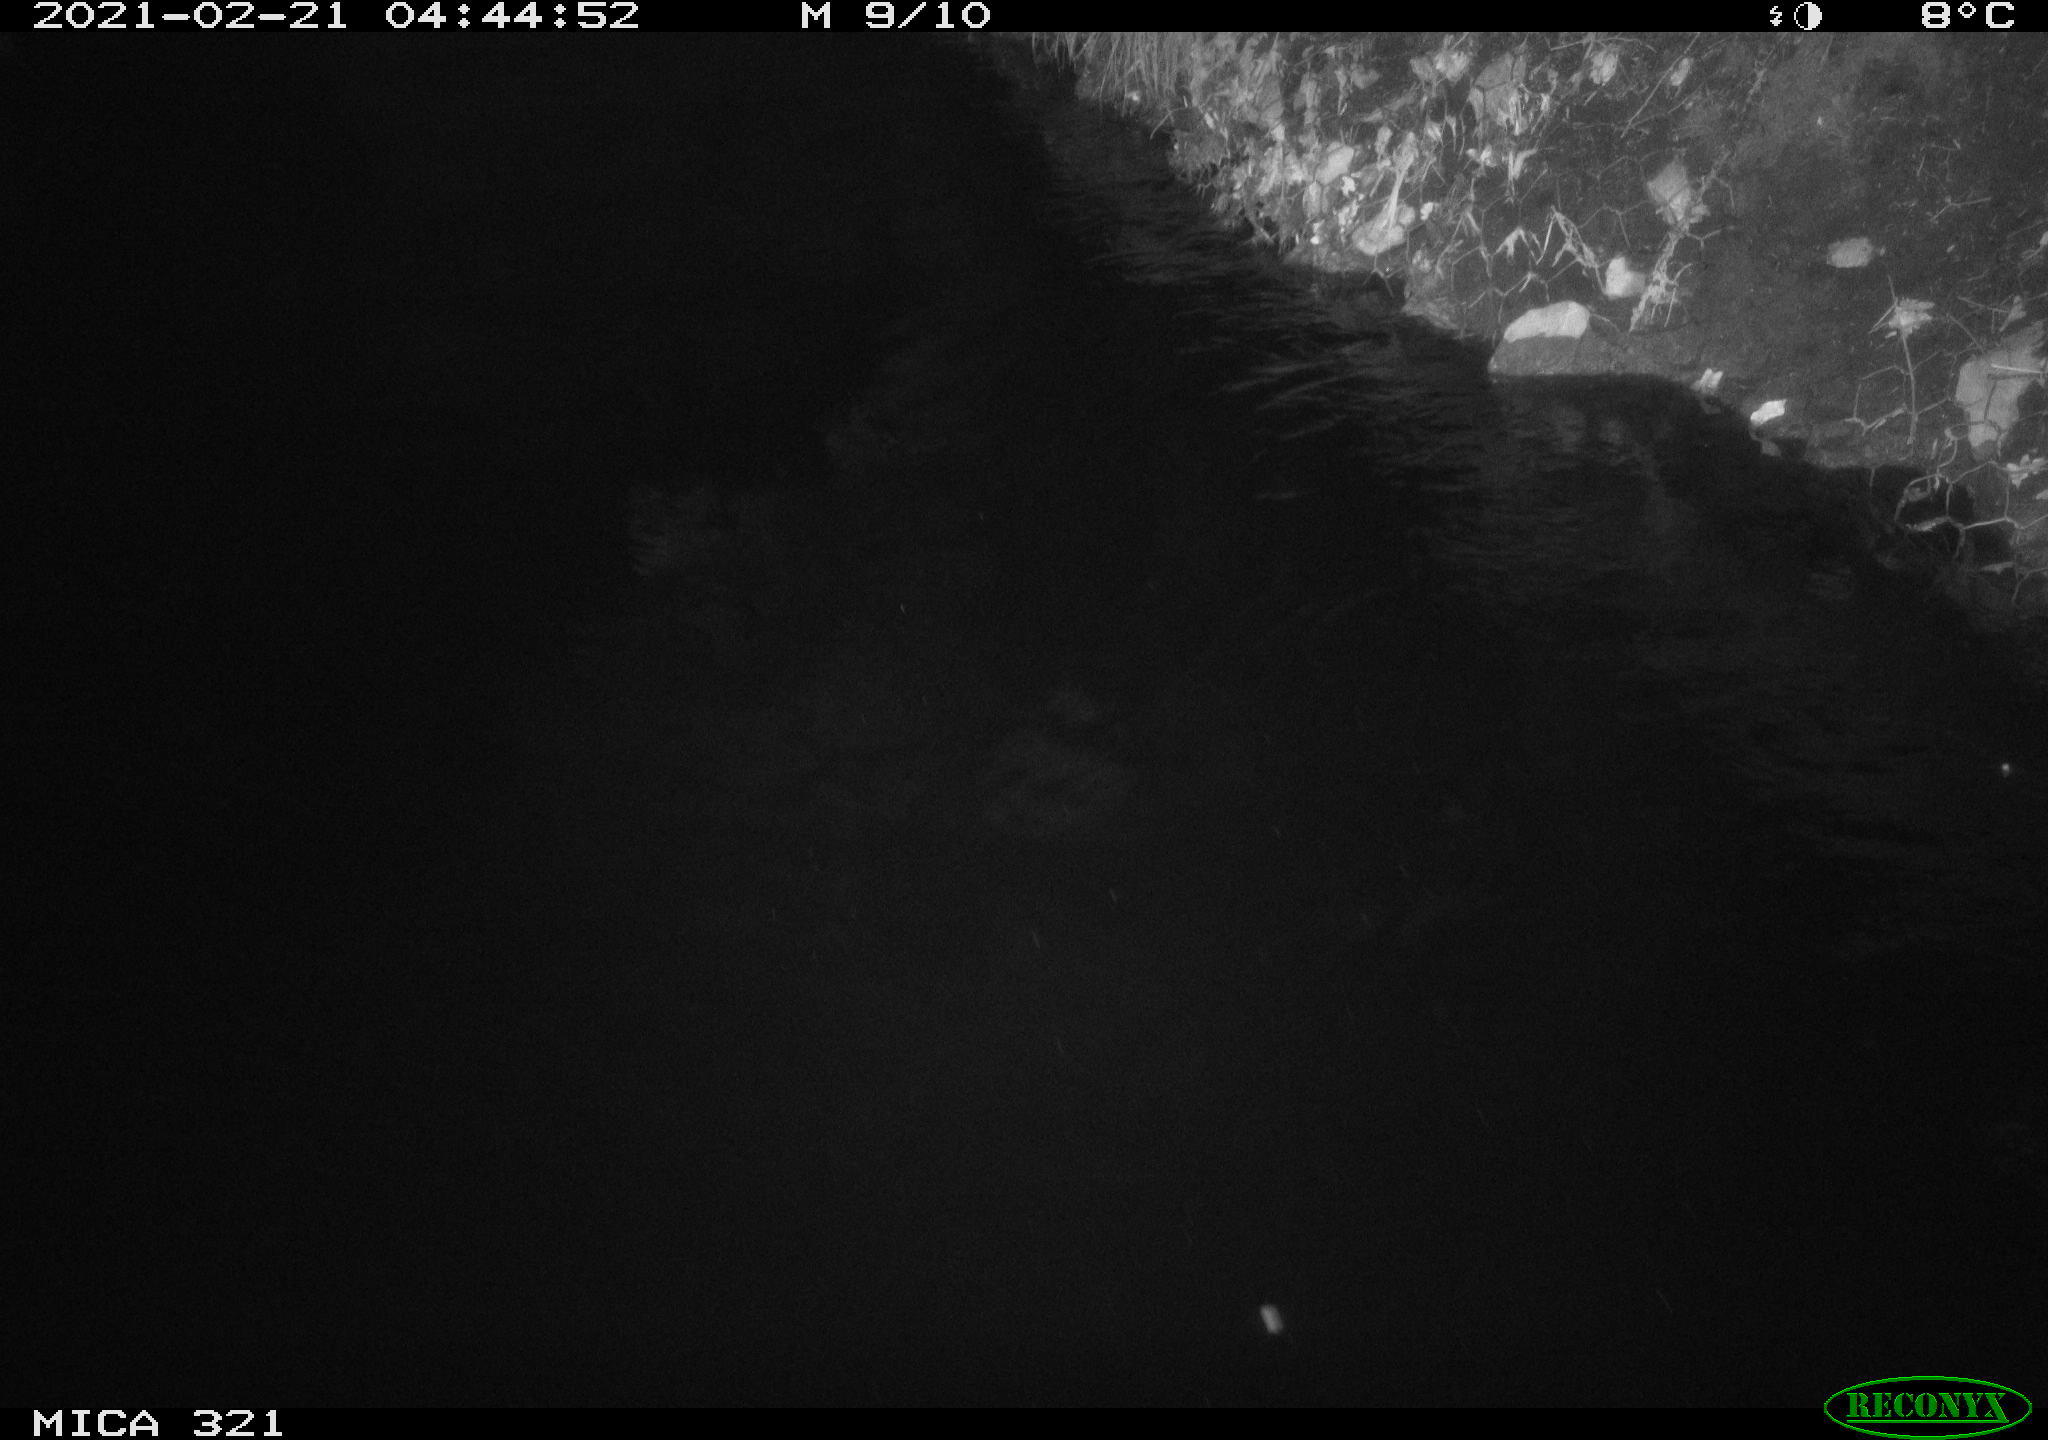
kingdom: Animalia
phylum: Chordata
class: Aves
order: Anseriformes
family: Anatidae
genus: Anas
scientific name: Anas platyrhynchos
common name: Mallard
